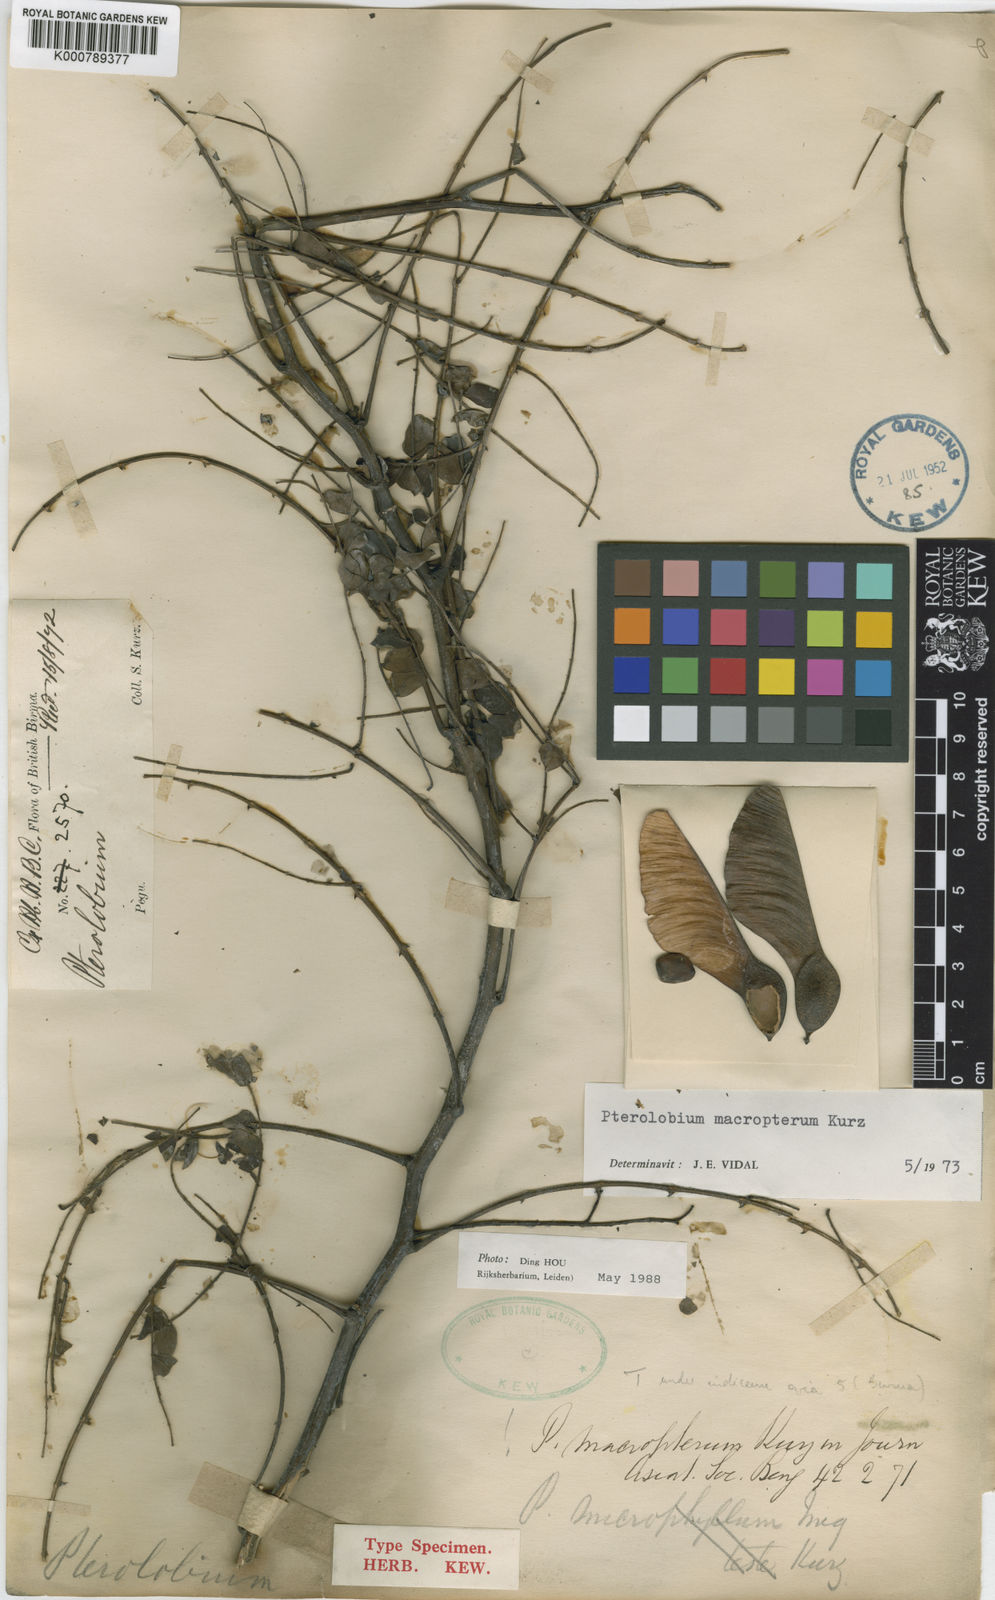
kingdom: Plantae
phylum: Tracheophyta
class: Magnoliopsida
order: Fabales
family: Fabaceae
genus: Pterolobium
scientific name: Pterolobium hexapetalum
